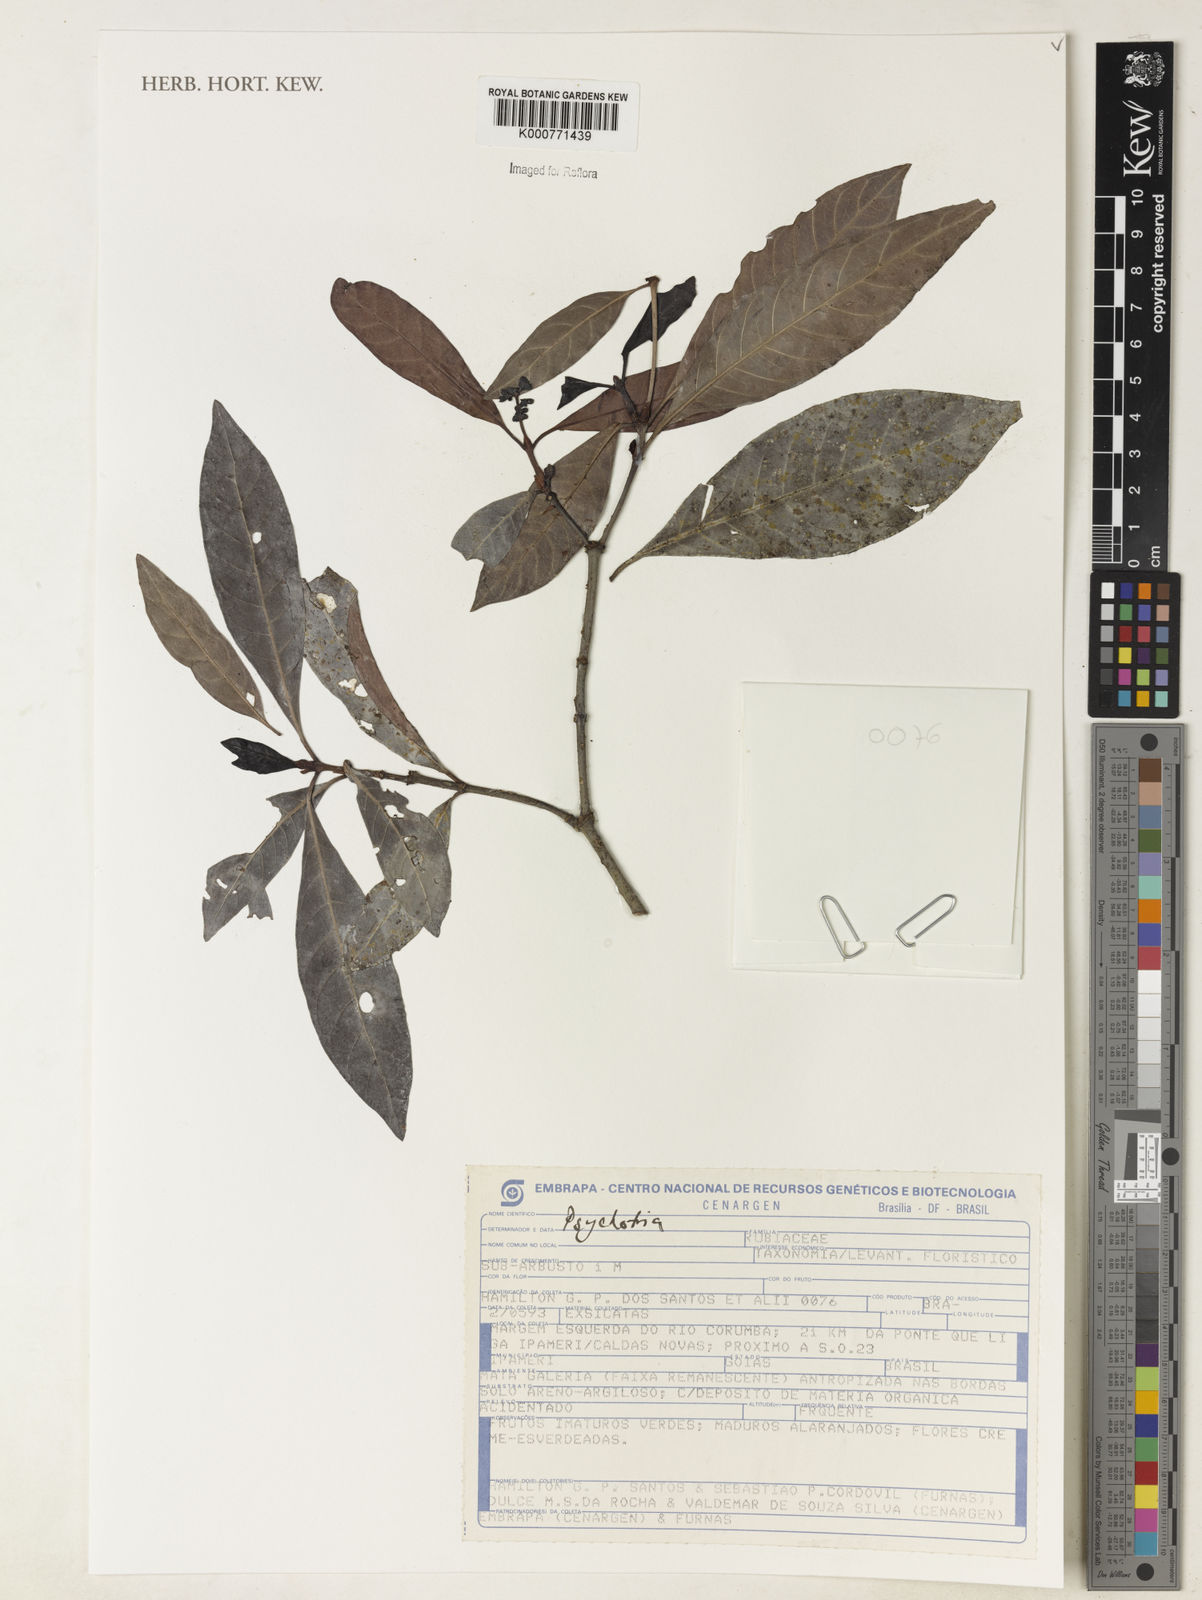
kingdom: Plantae
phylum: Tracheophyta
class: Magnoliopsida
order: Gentianales
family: Rubiaceae
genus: Psychotria
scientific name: Psychotria
